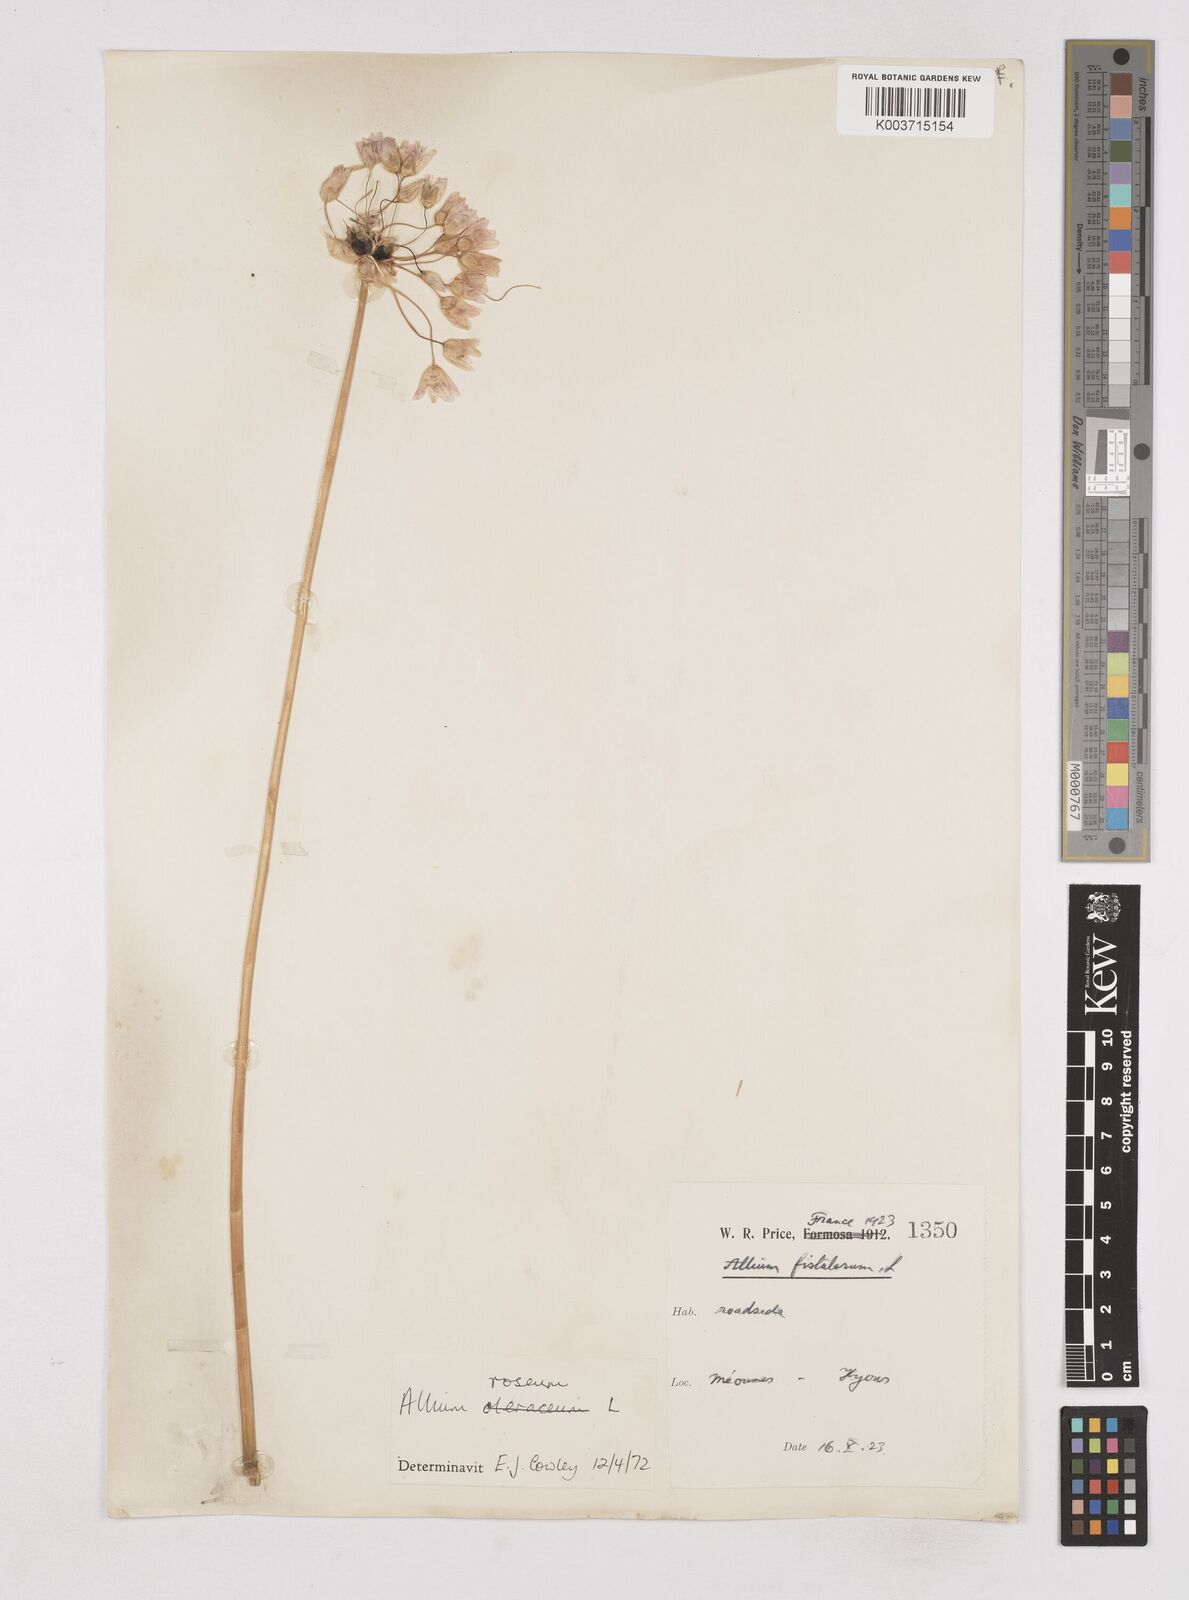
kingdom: Plantae
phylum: Tracheophyta
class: Liliopsida
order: Asparagales
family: Amaryllidaceae
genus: Allium
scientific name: Allium roseum
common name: Rosy garlic
